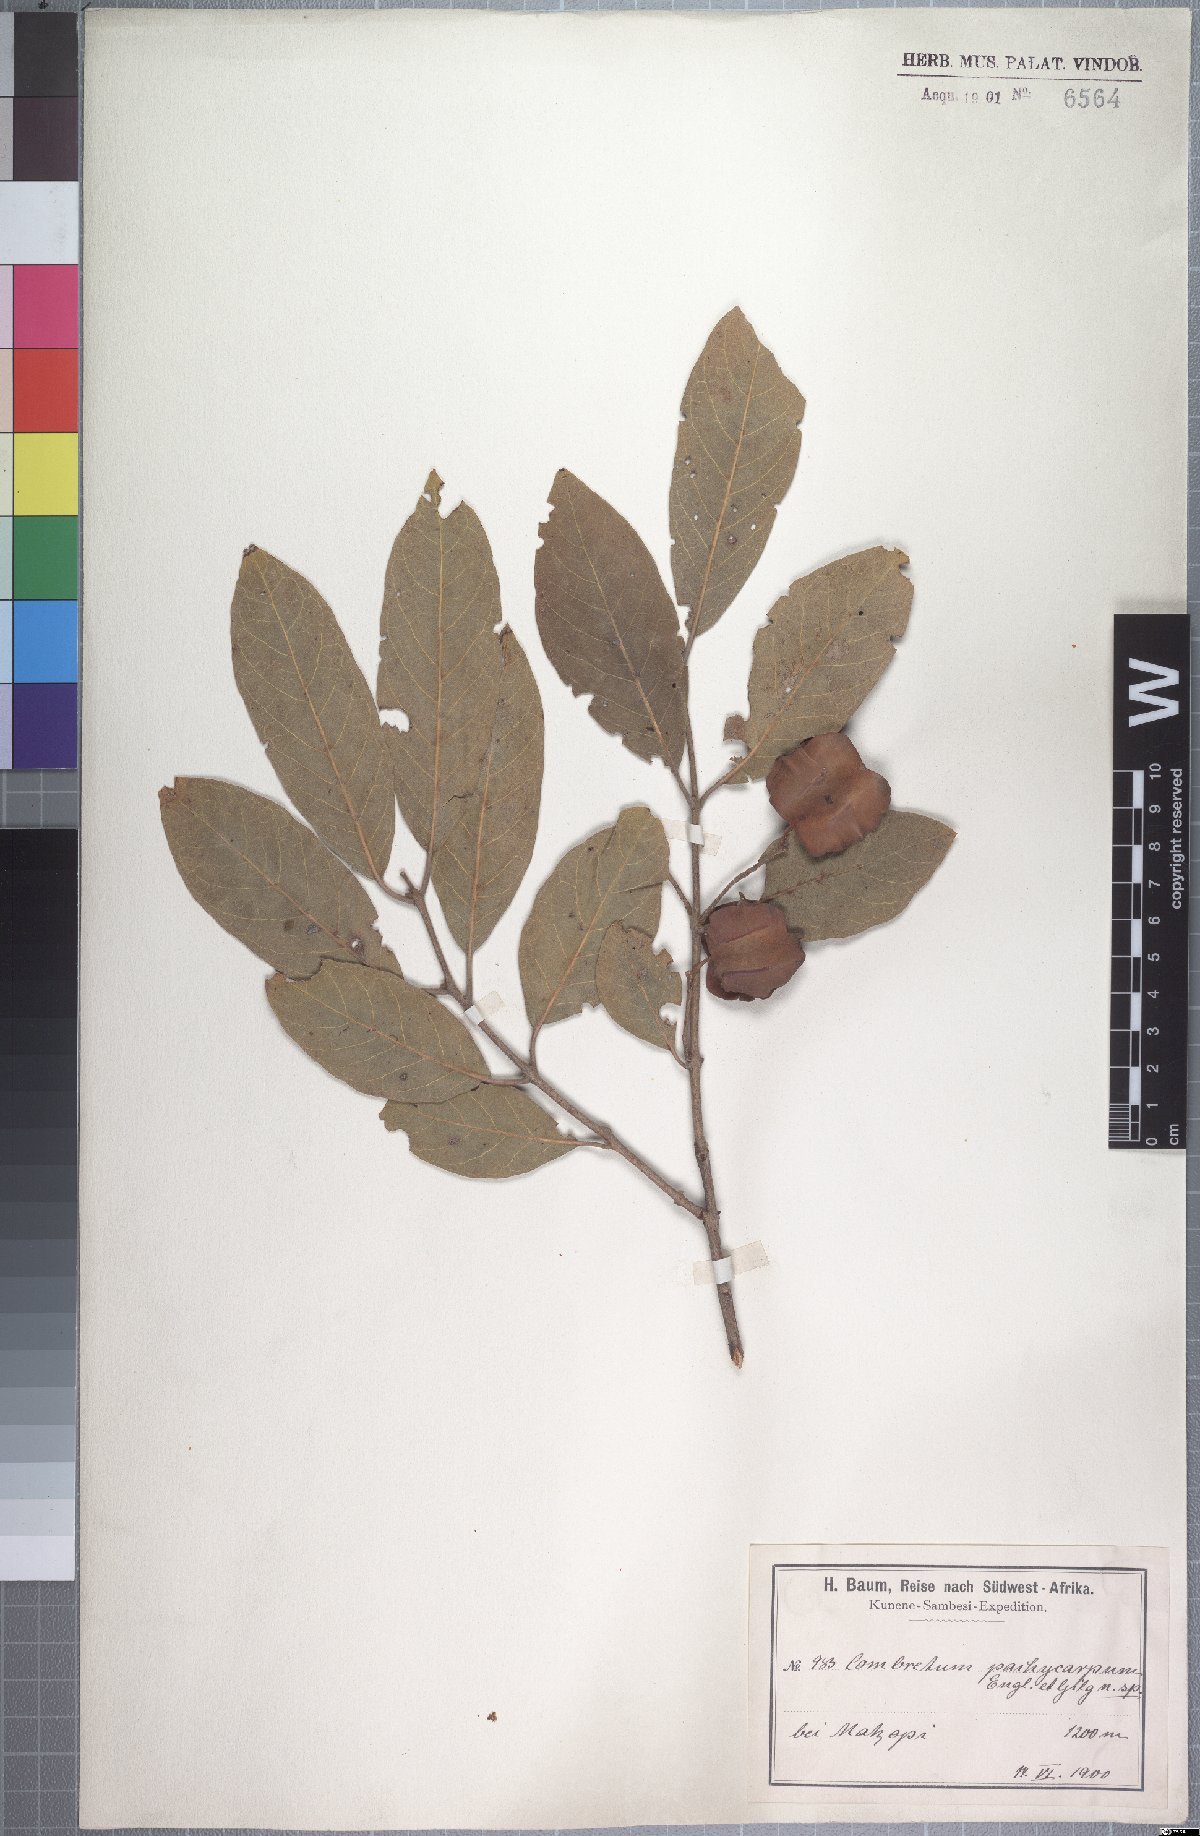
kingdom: Plantae
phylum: Tracheophyta
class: Magnoliopsida
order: Myrtales
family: Combretaceae
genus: Combretum
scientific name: Combretum collinum
